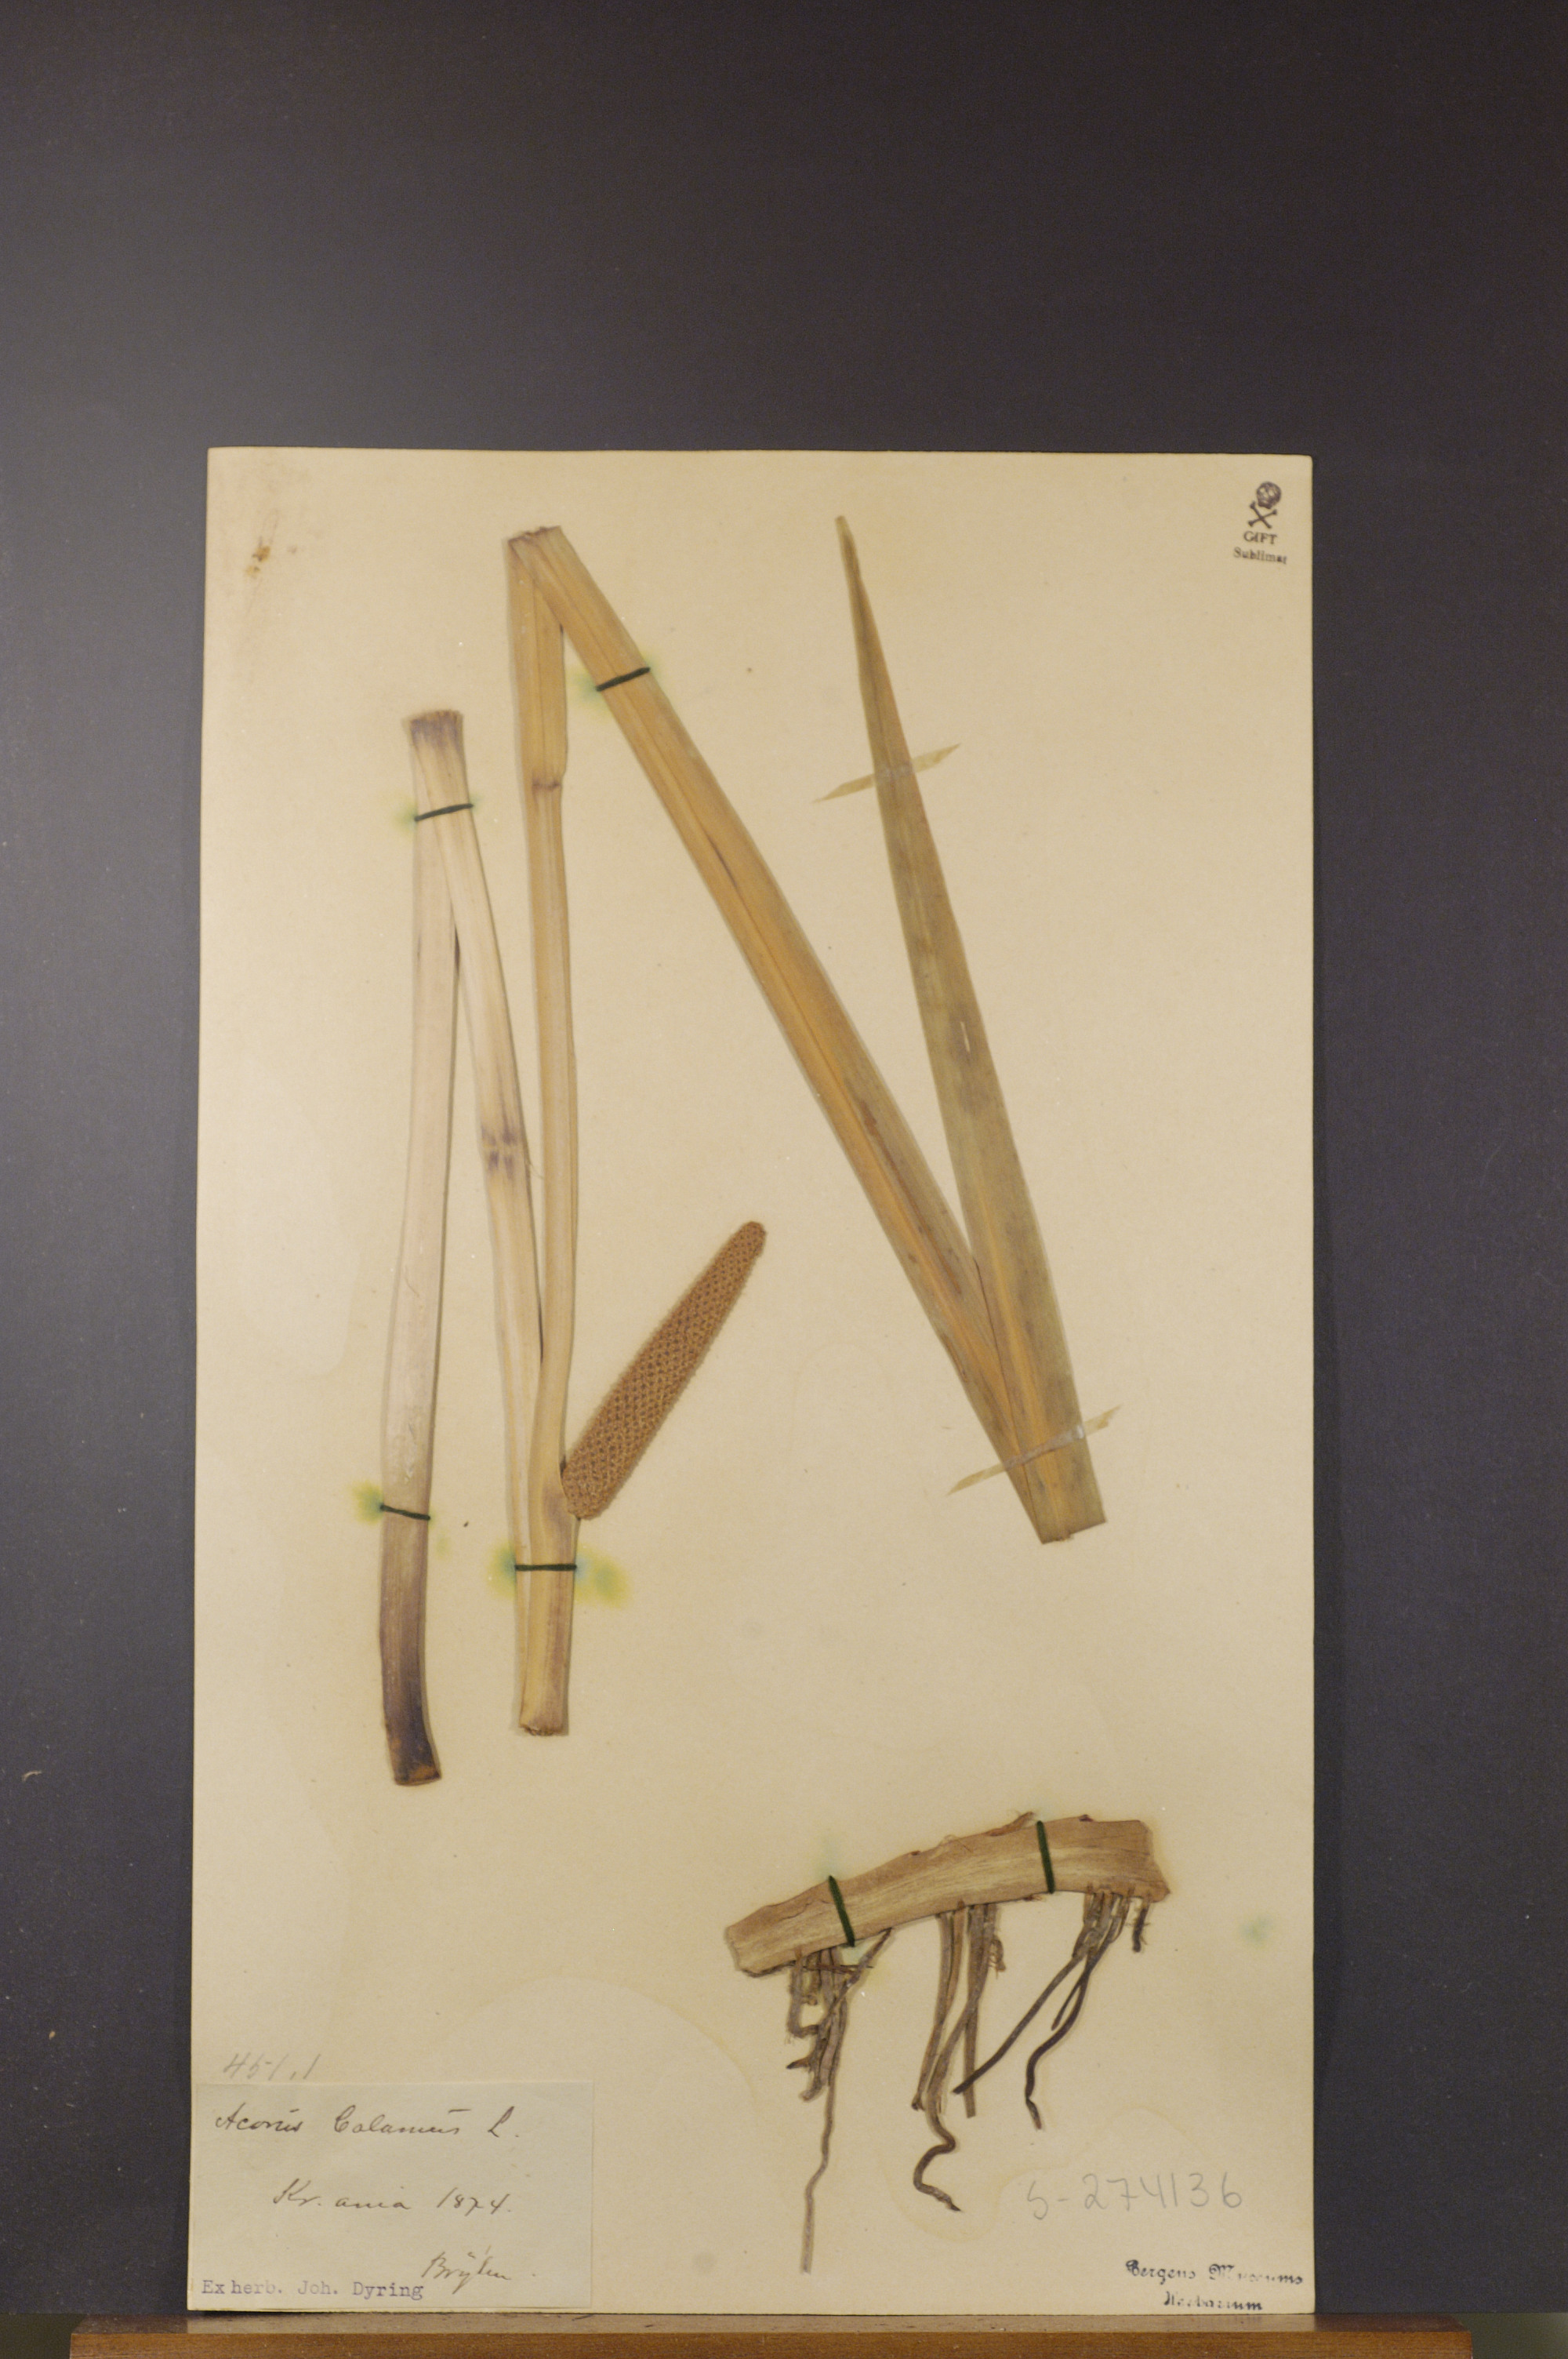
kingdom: Plantae
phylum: Tracheophyta
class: Liliopsida
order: Acorales
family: Acoraceae
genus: Acorus
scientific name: Acorus calamus
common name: Sweet-flag
